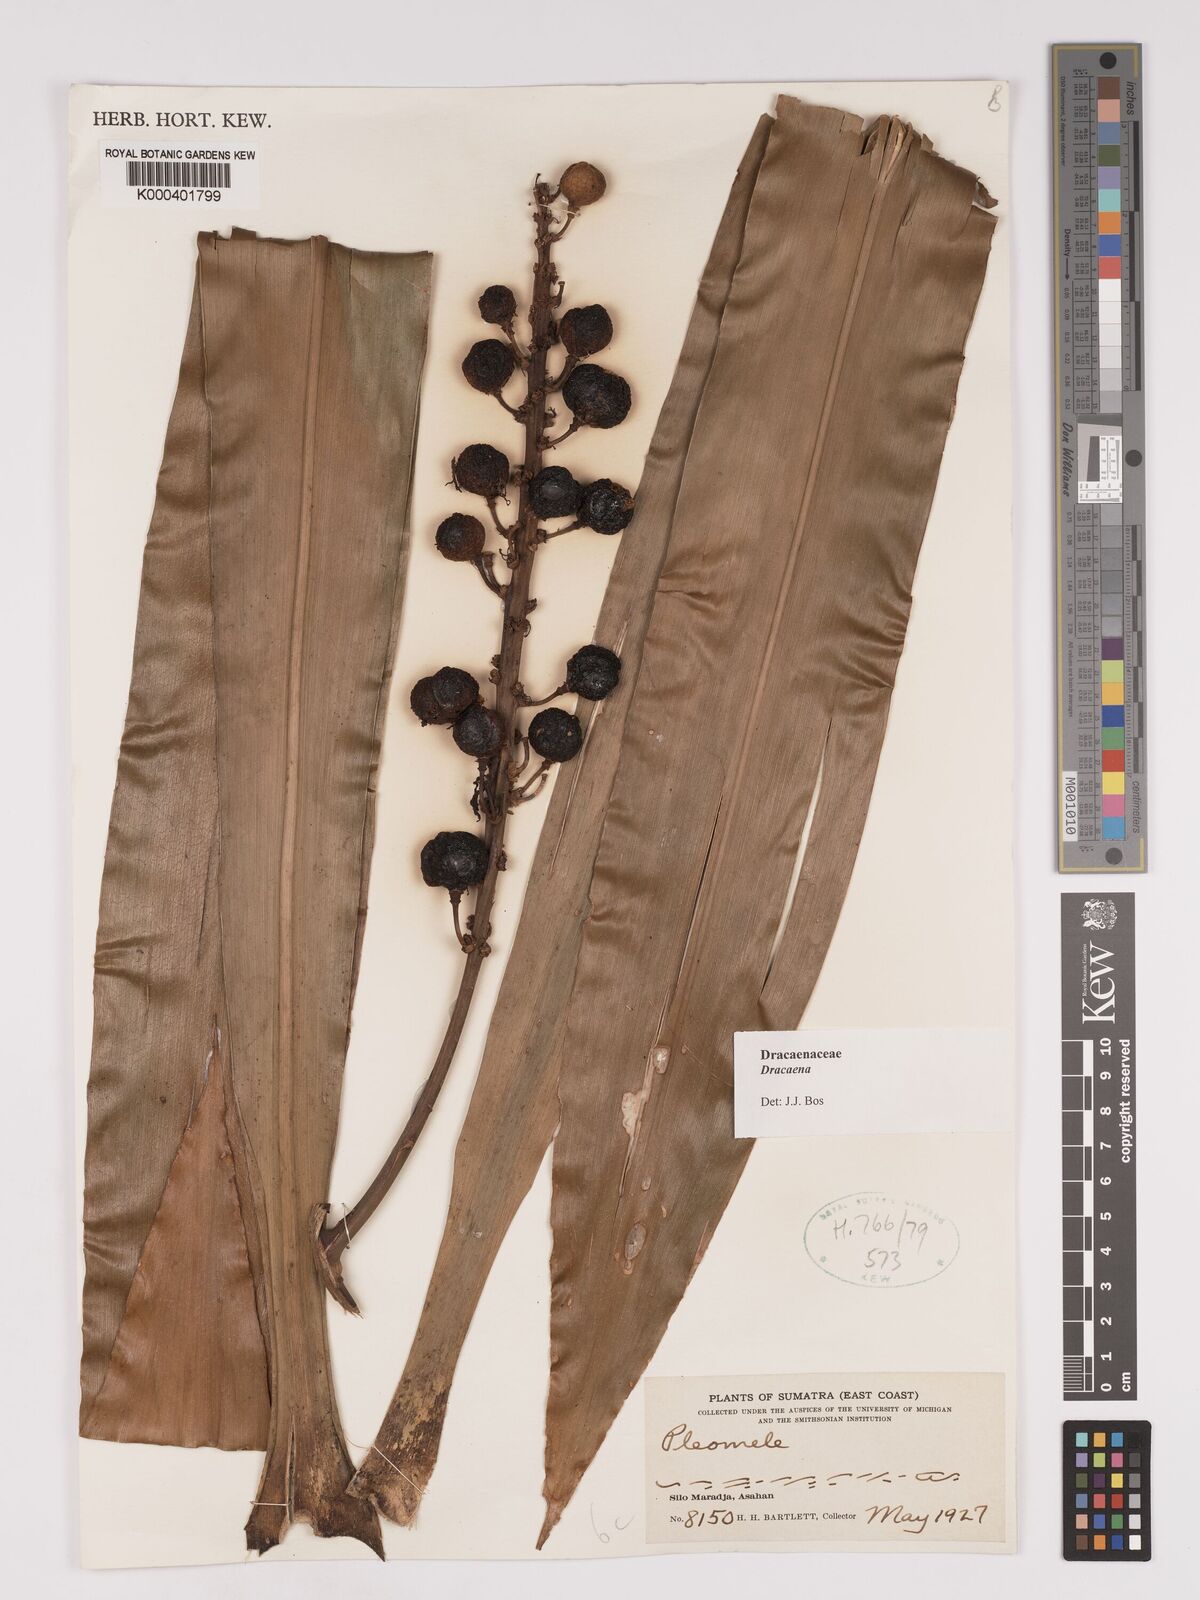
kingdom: Plantae
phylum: Tracheophyta
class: Liliopsida
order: Asparagales
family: Asparagaceae
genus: Dracaena
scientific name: Dracaena
